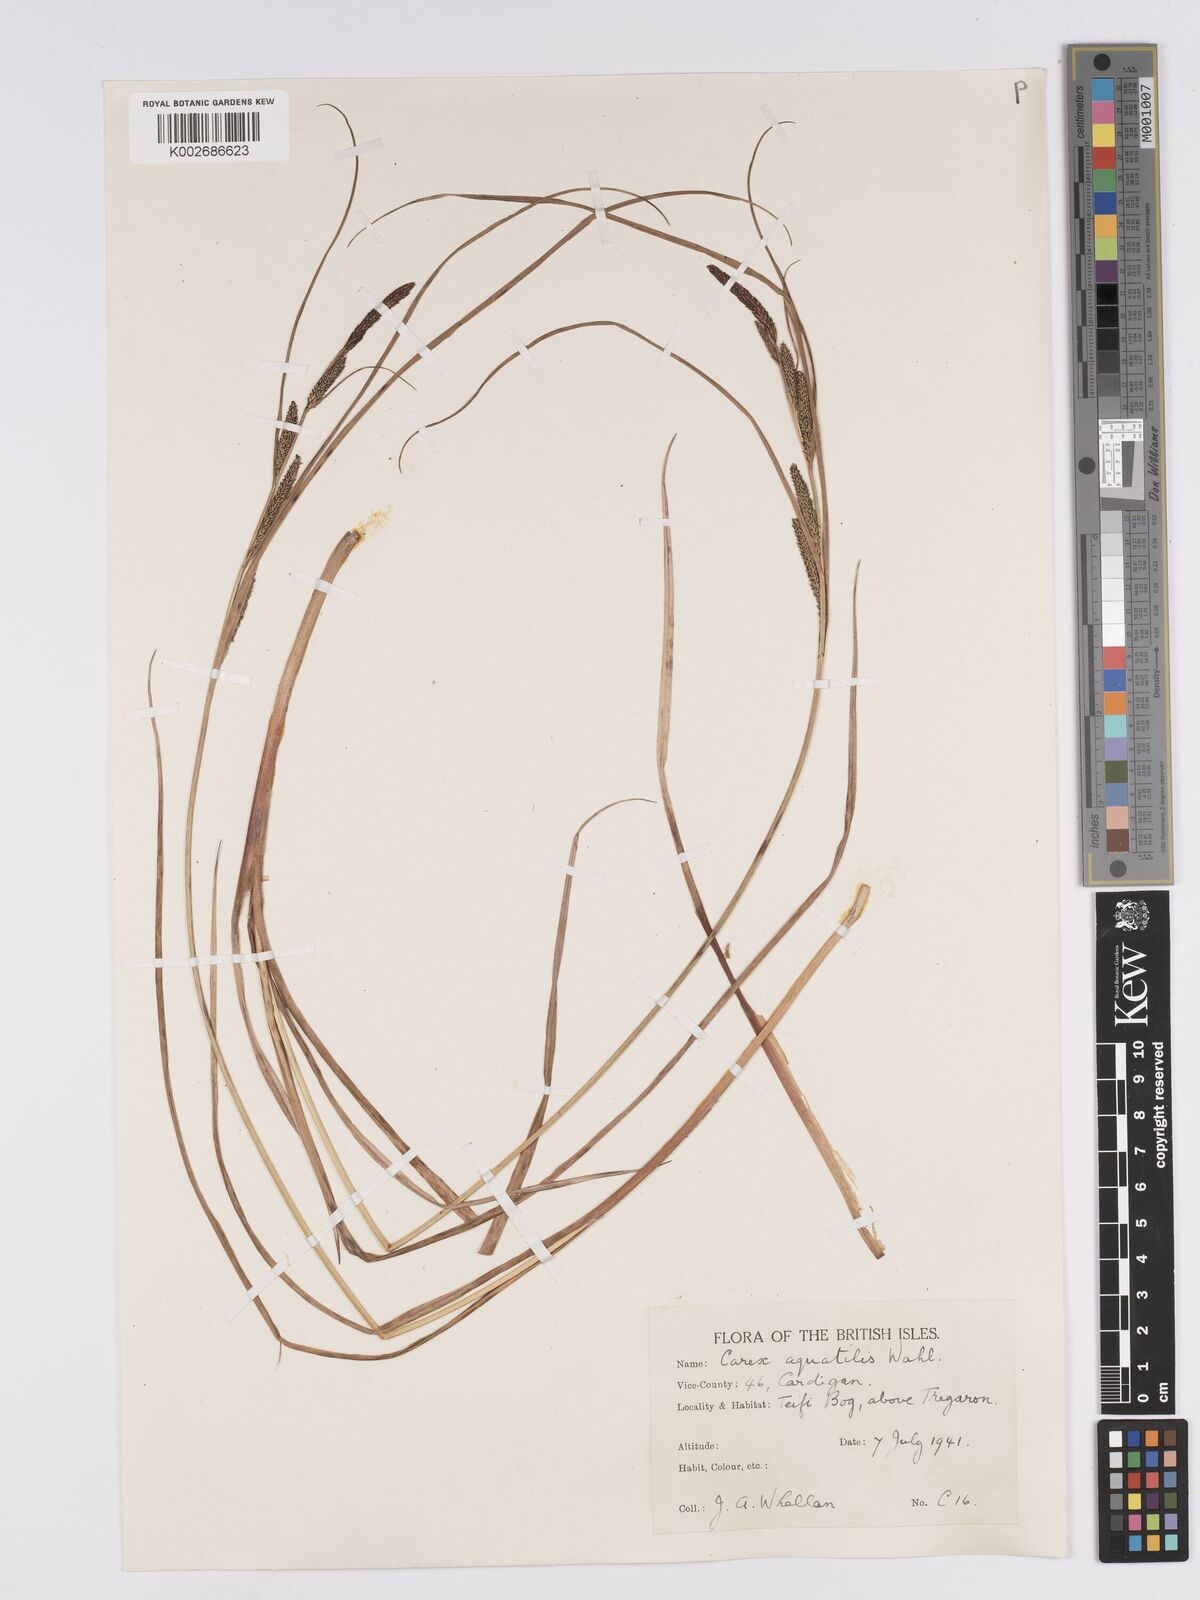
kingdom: Plantae
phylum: Tracheophyta
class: Liliopsida
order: Poales
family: Cyperaceae
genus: Carex
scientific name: Carex aquatilis
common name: Water sedge
